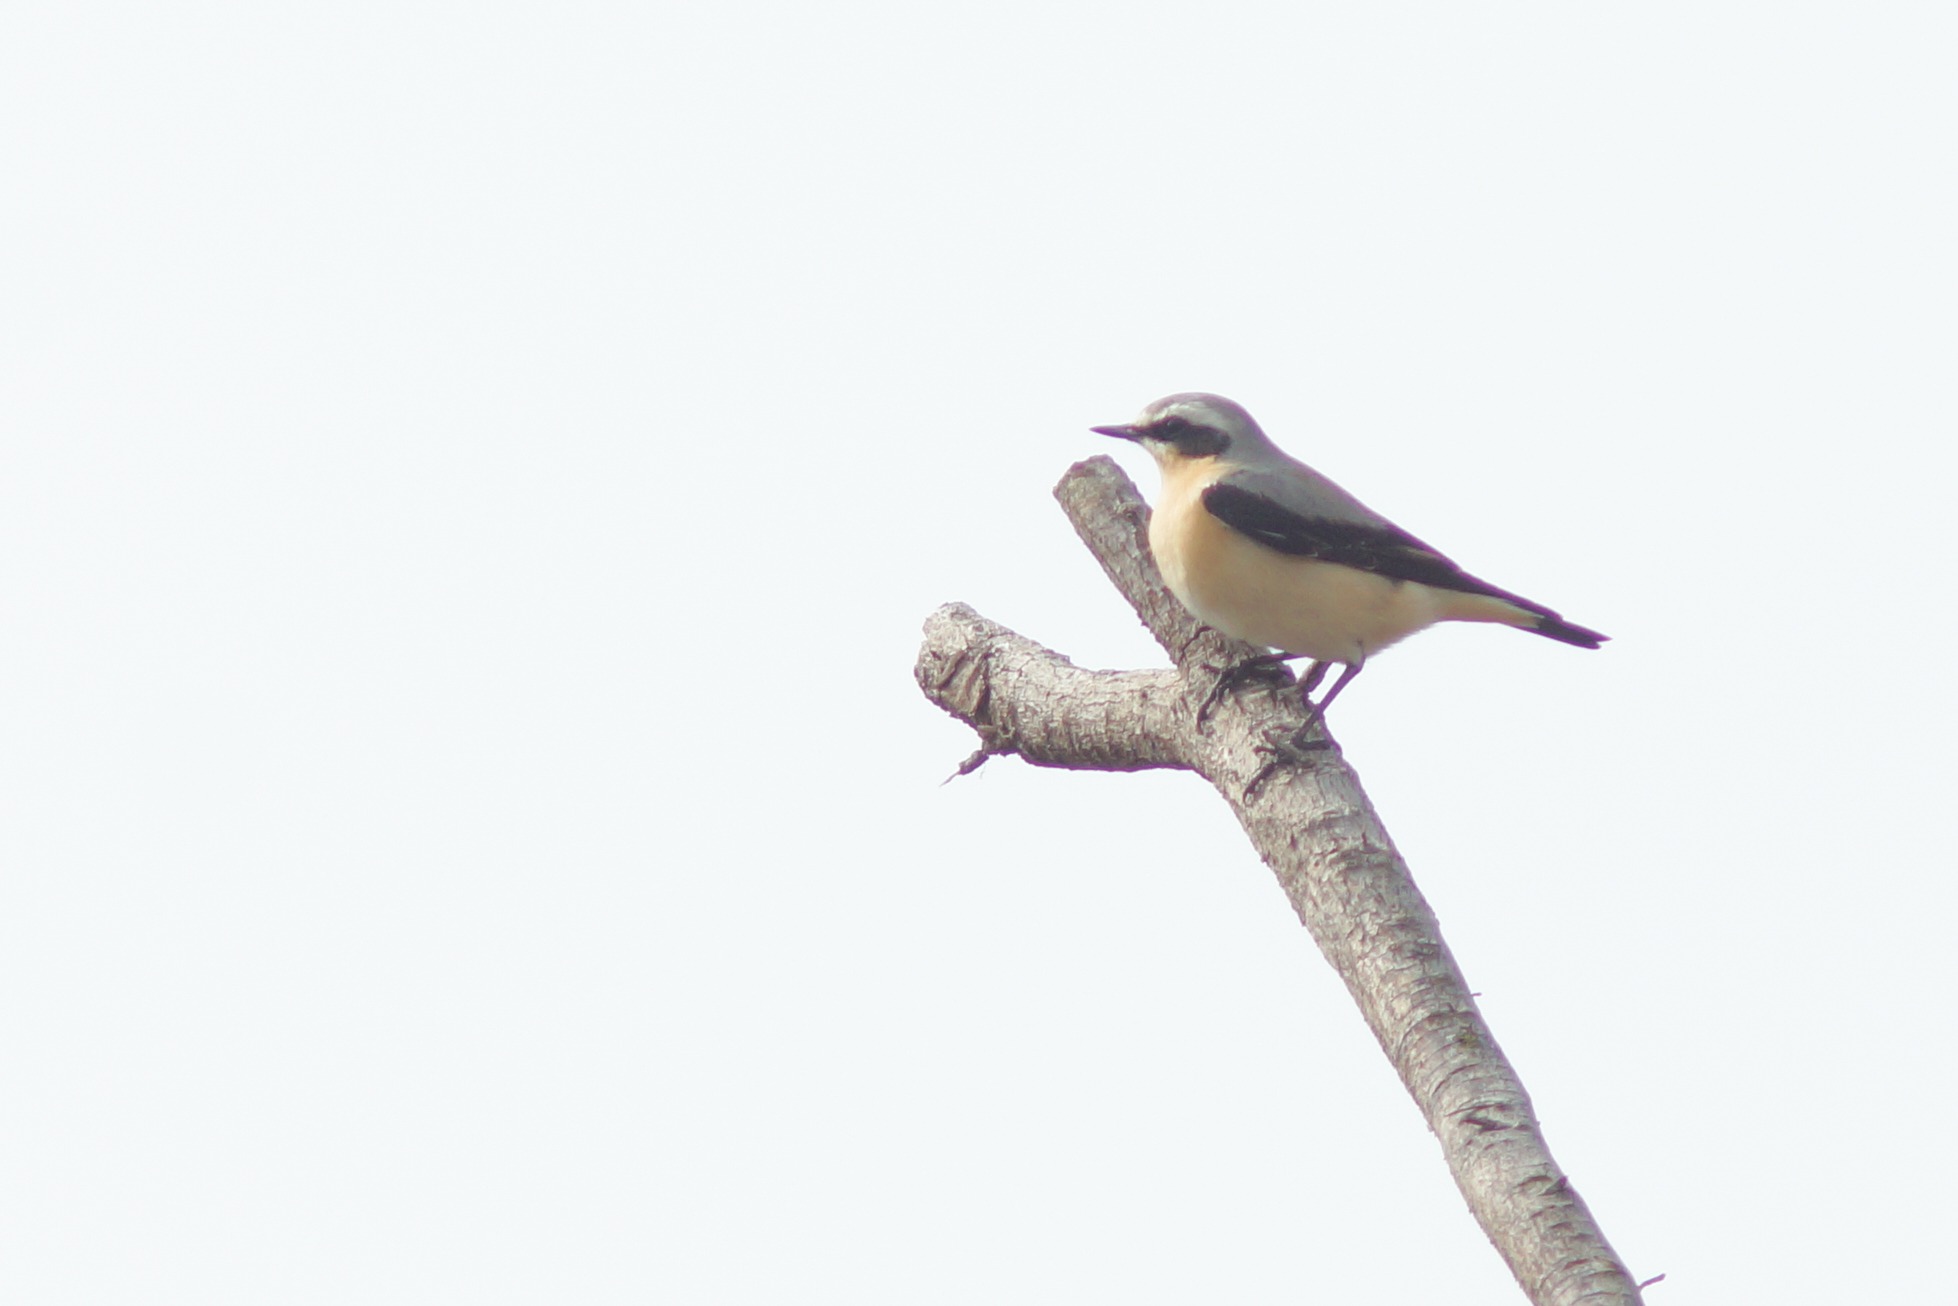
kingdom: Animalia
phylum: Chordata
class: Aves
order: Passeriformes
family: Muscicapidae
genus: Oenanthe
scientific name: Oenanthe oenanthe
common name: Stenpikker
